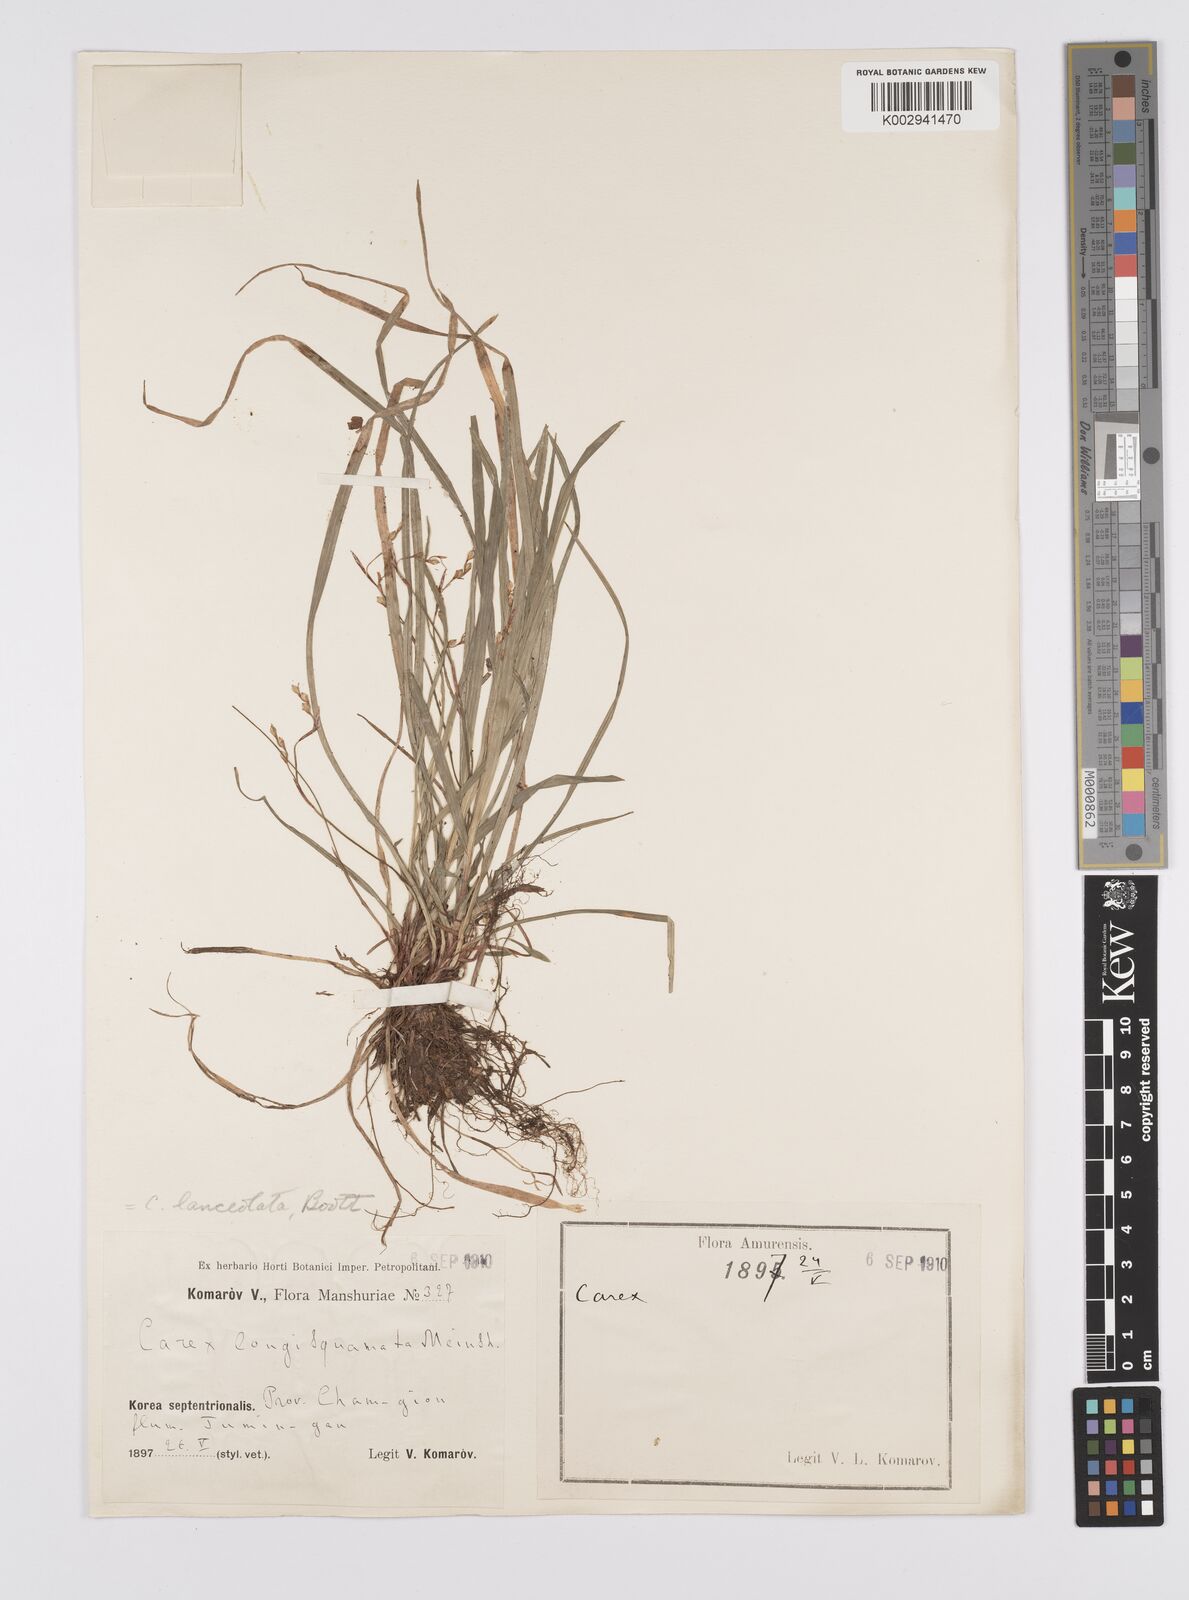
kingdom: Plantae
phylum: Tracheophyta
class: Liliopsida
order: Poales
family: Cyperaceae
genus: Carex
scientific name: Carex lanceolata
